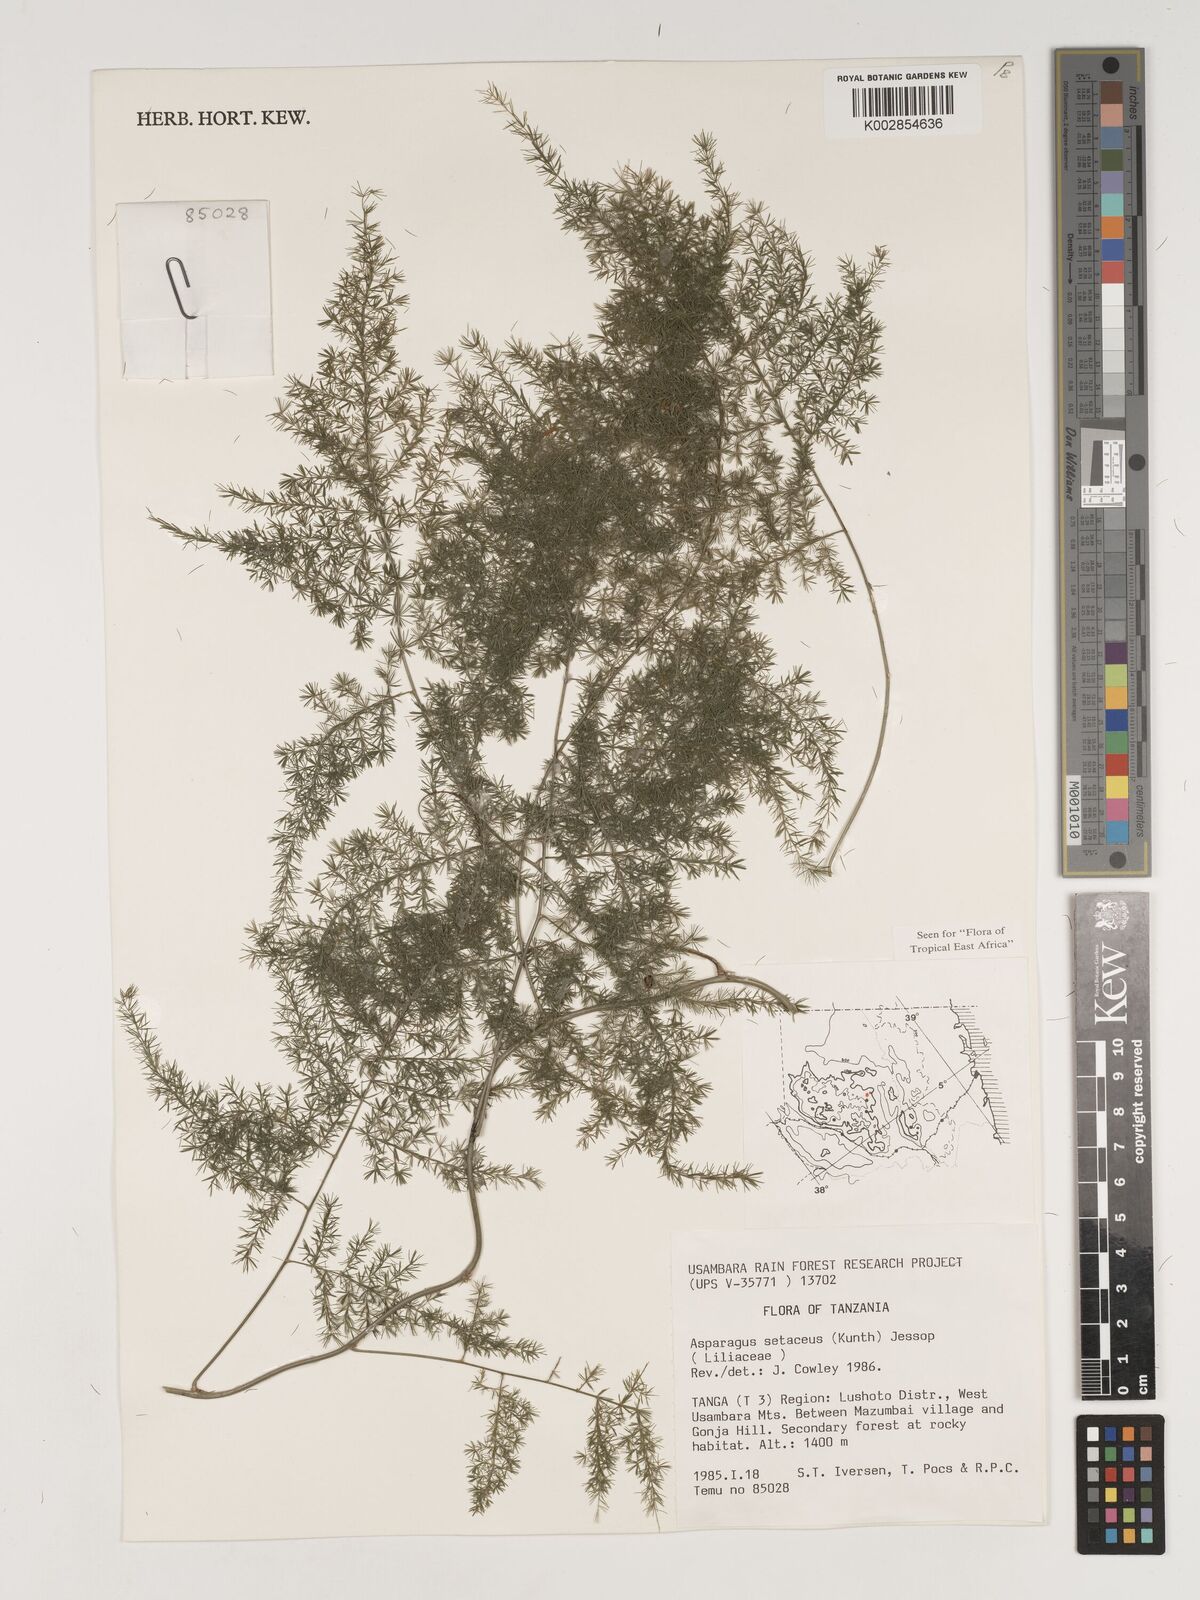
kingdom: Plantae
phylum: Tracheophyta
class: Liliopsida
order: Asparagales
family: Asparagaceae
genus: Asparagus
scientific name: Asparagus setaceus
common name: Common asparagus fern
